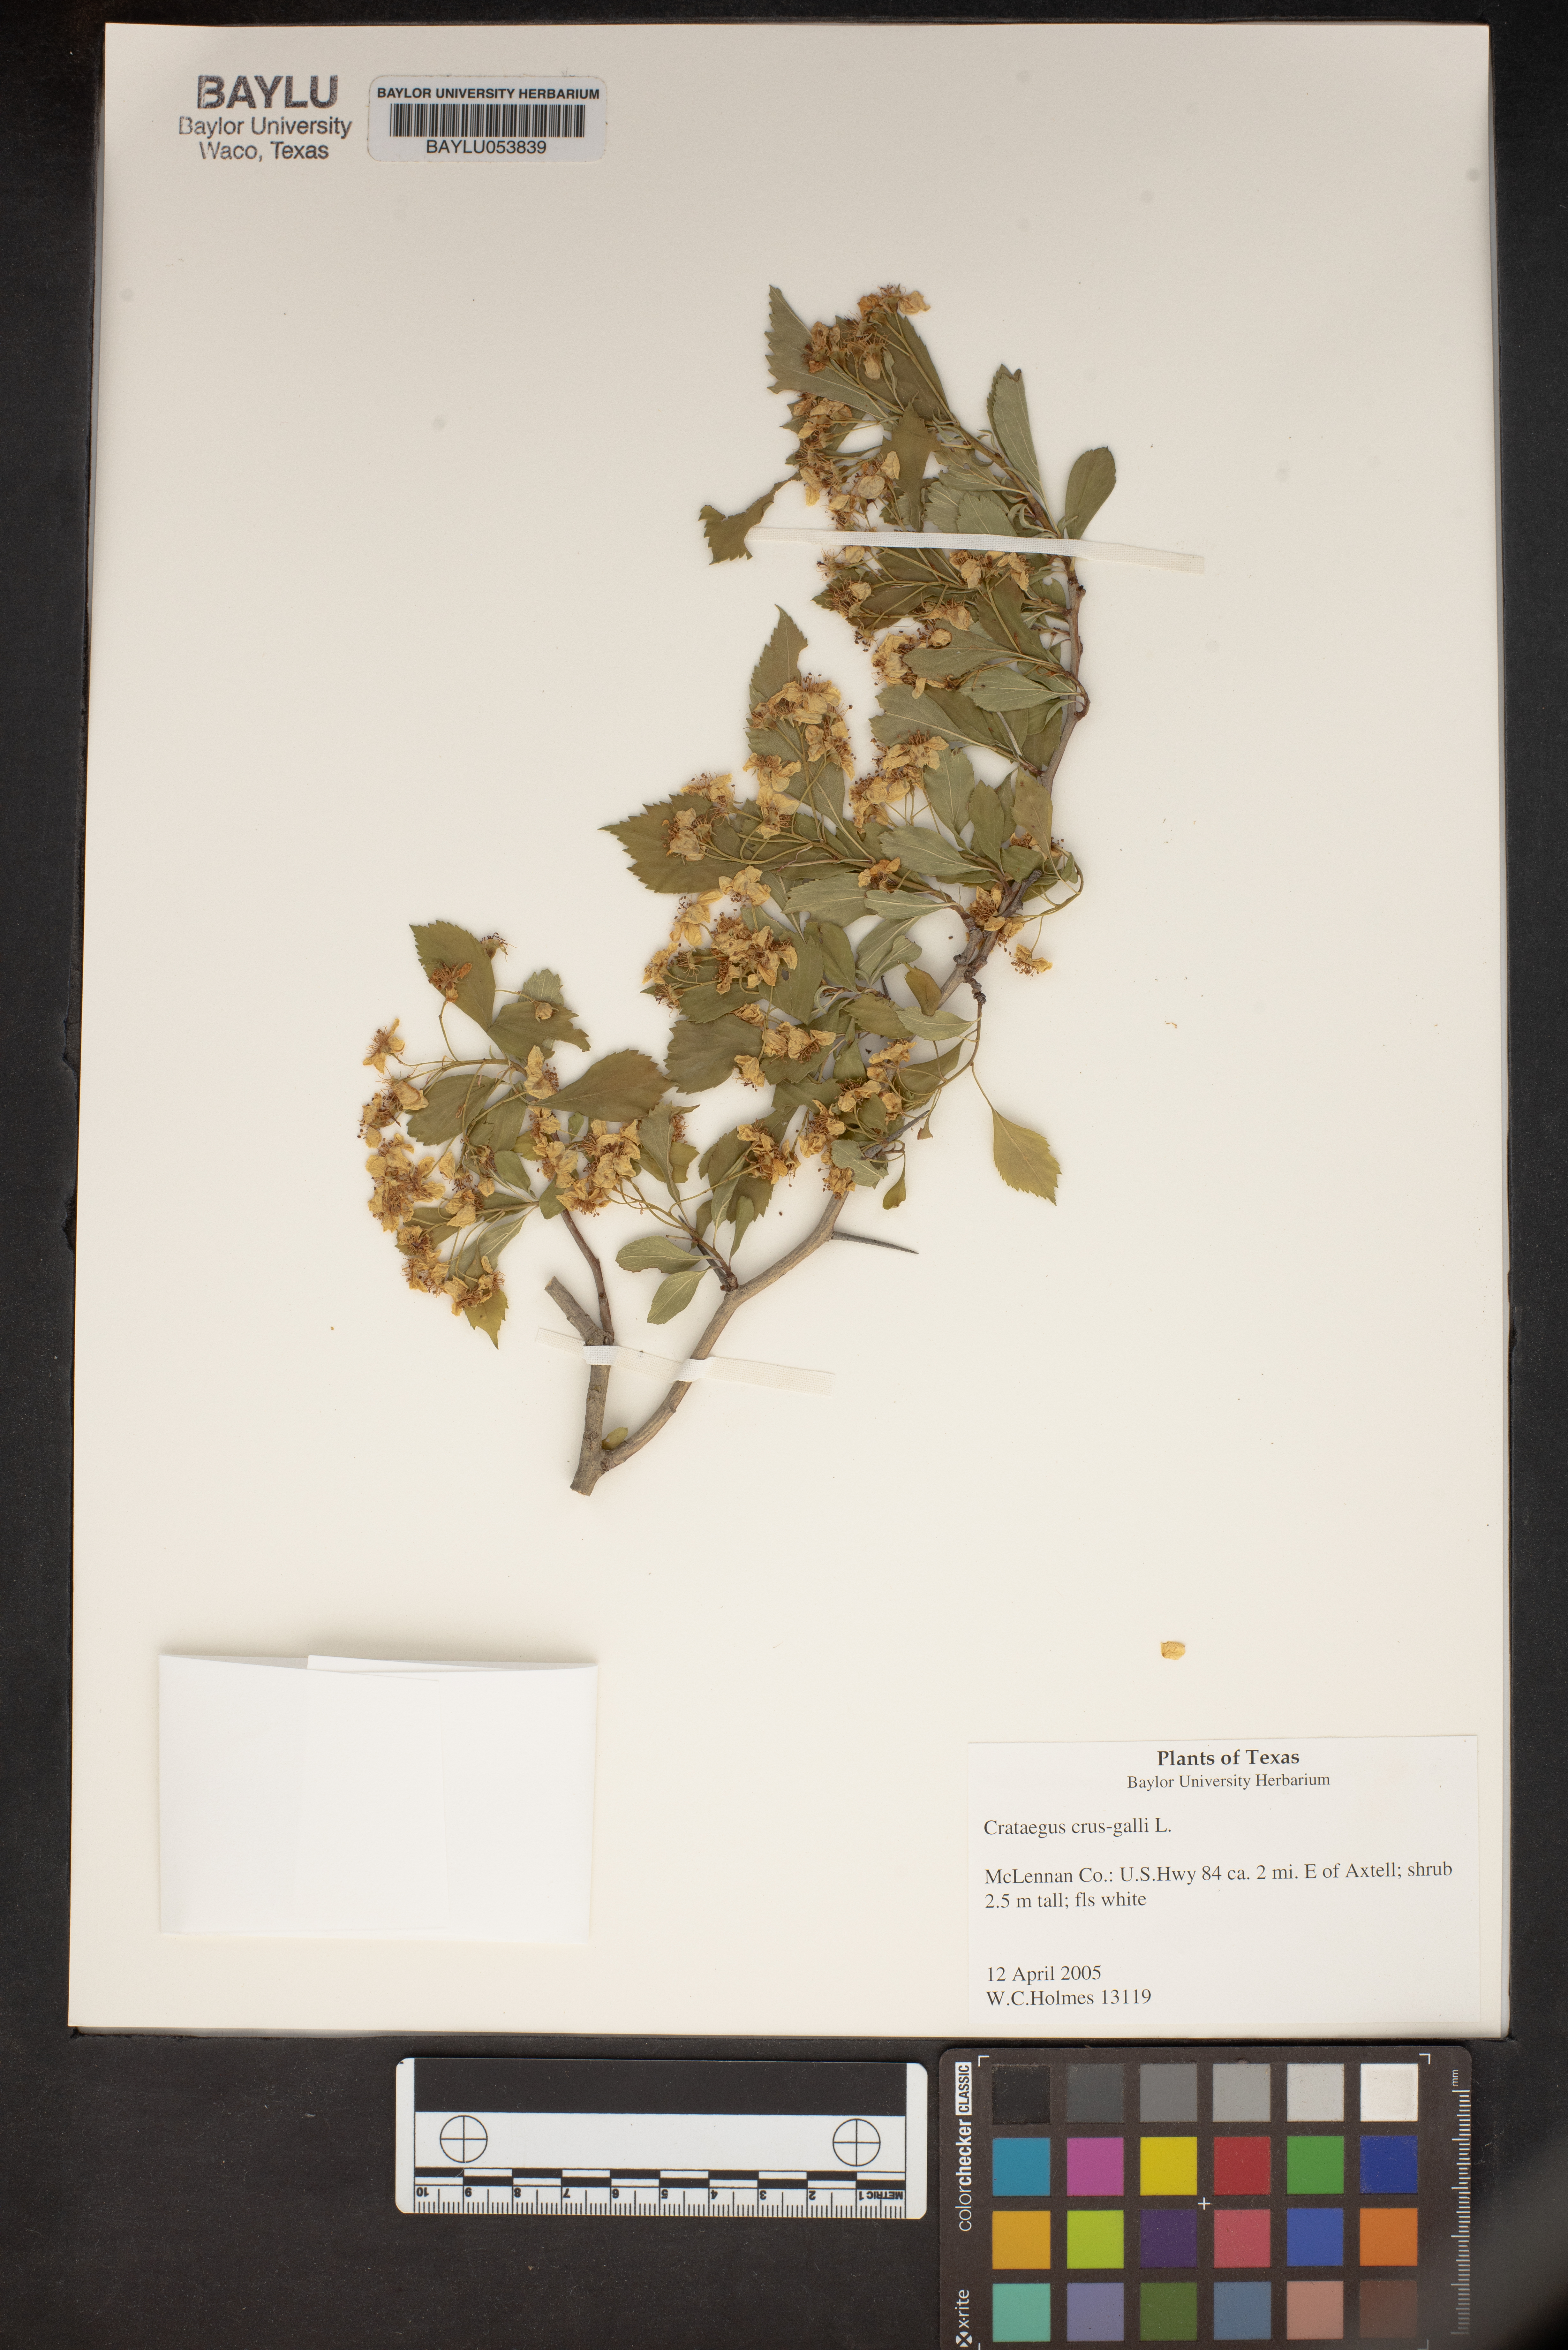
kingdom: Plantae
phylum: Tracheophyta
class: Magnoliopsida
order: Rosales
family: Rosaceae
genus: Crataegus
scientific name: Crataegus crus-galli
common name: Cockspurthorn
